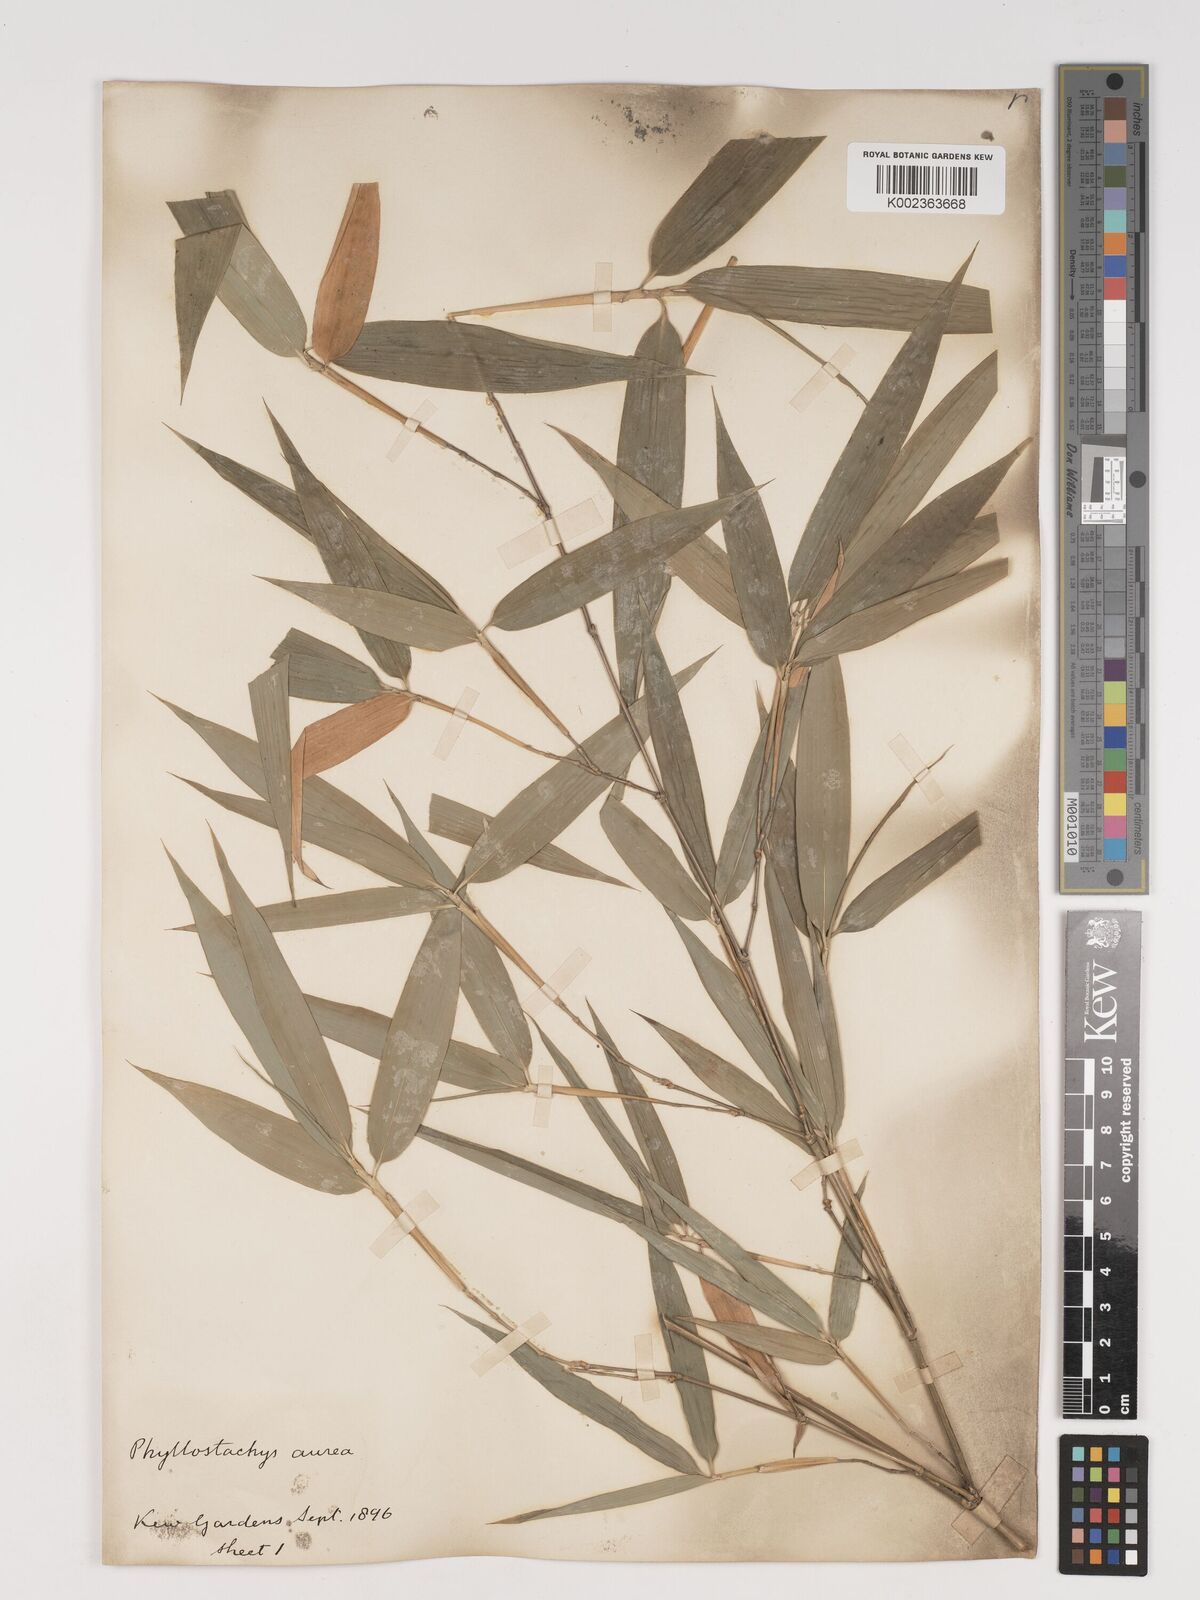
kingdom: Plantae
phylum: Tracheophyta
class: Liliopsida
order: Poales
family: Poaceae
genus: Phyllostachys
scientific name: Phyllostachys aurea
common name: Golden bamboo
